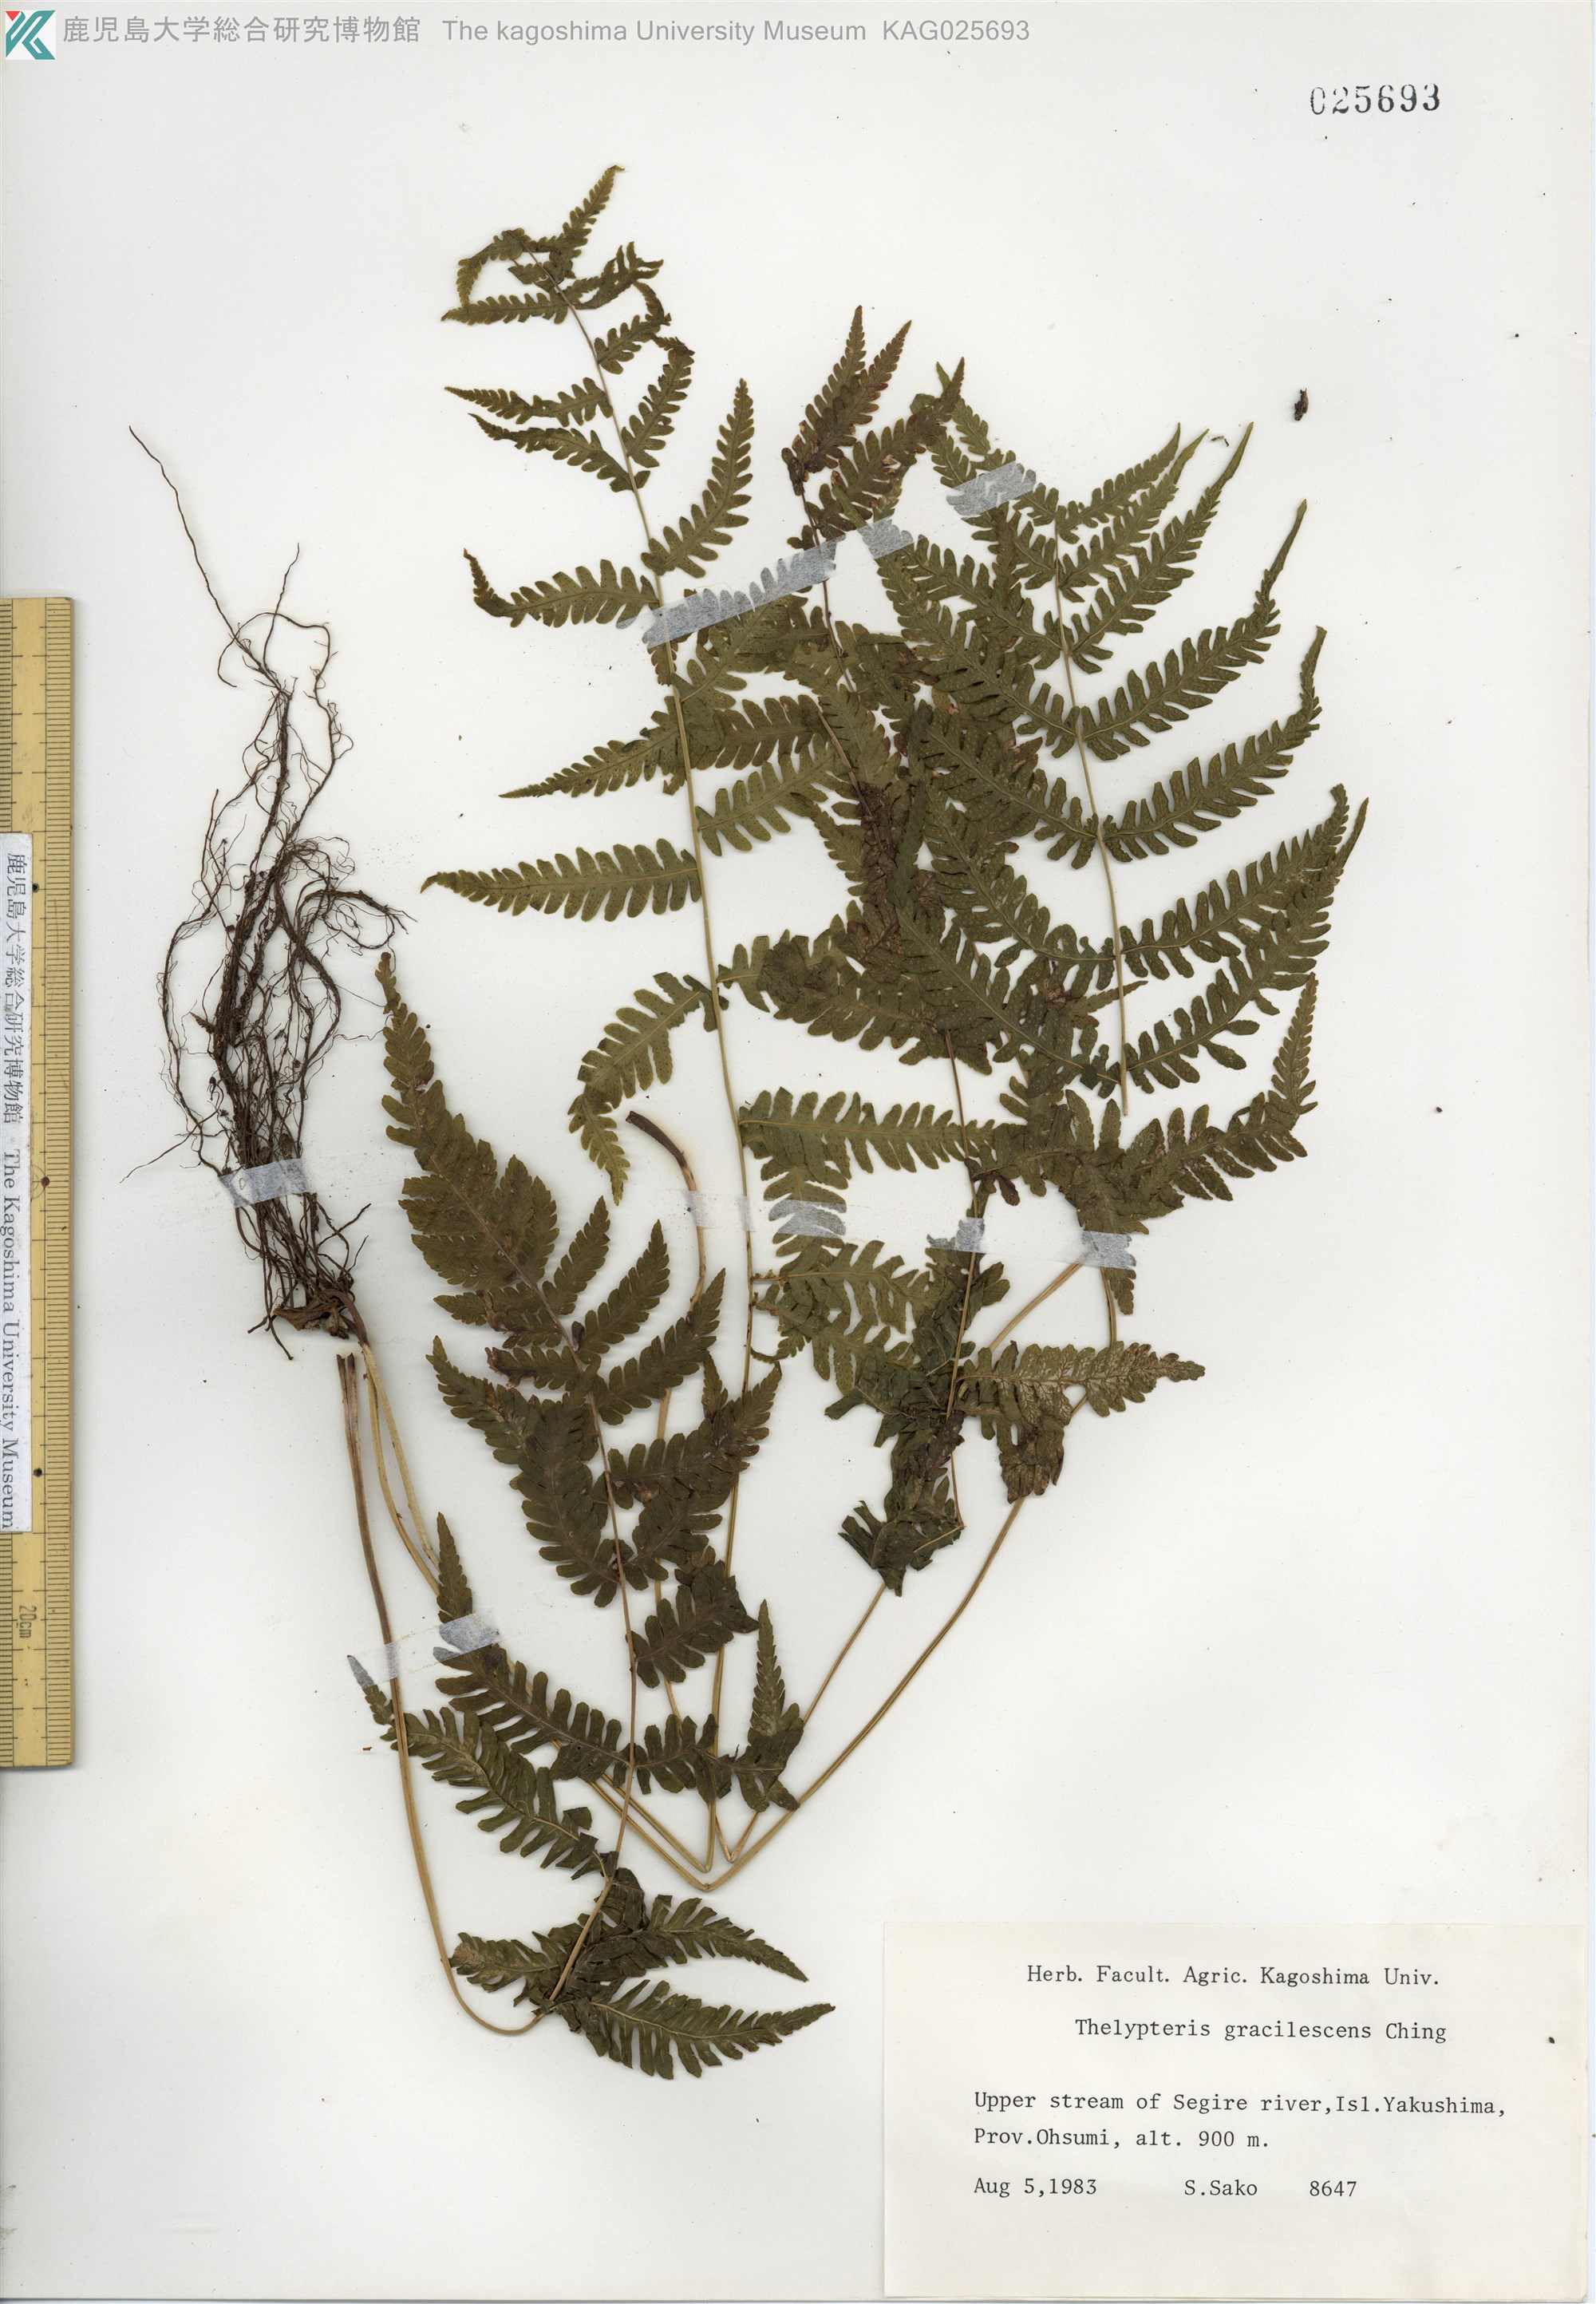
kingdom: Plantae
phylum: Tracheophyta
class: Polypodiopsida
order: Polypodiales
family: Thelypteridaceae
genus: Metathelypteris
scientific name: Metathelypteris gracilescens
